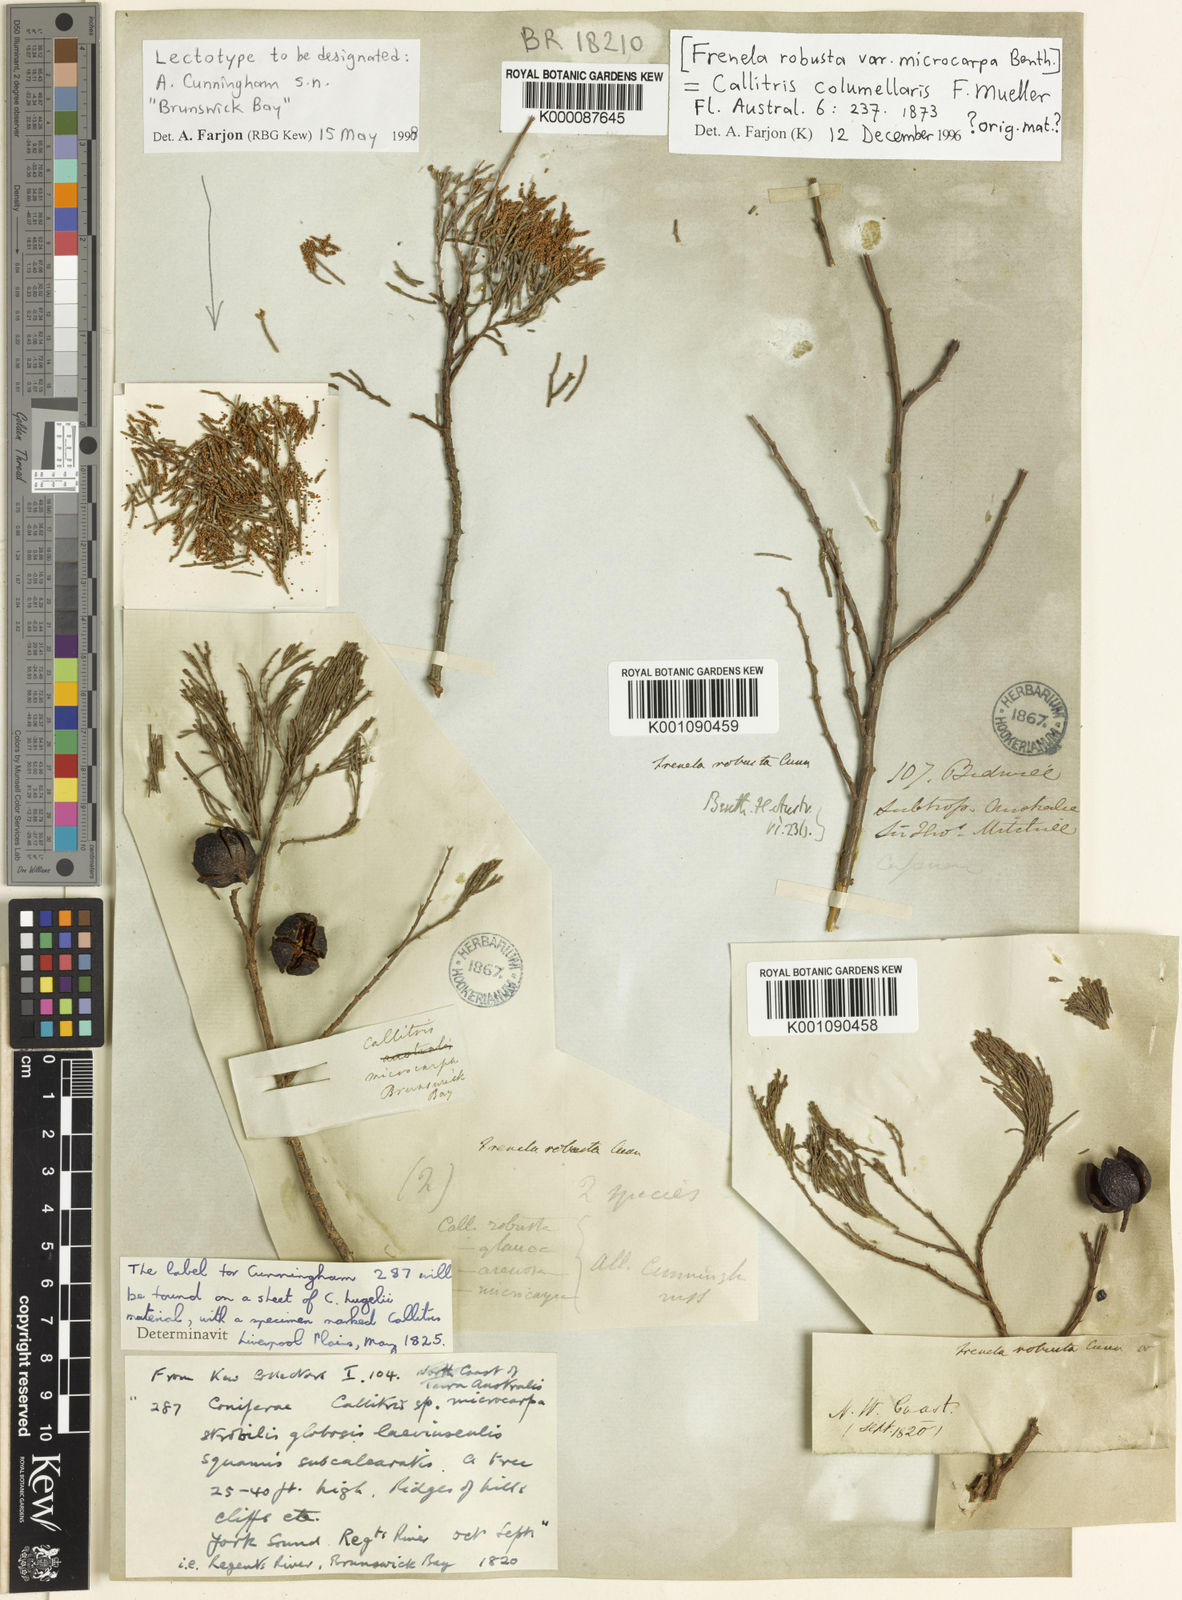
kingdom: Plantae
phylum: Tracheophyta
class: Pinopsida
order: Pinales
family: Cupressaceae
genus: Callitris
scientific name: Callitris columellaris
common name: White cypress-pine
